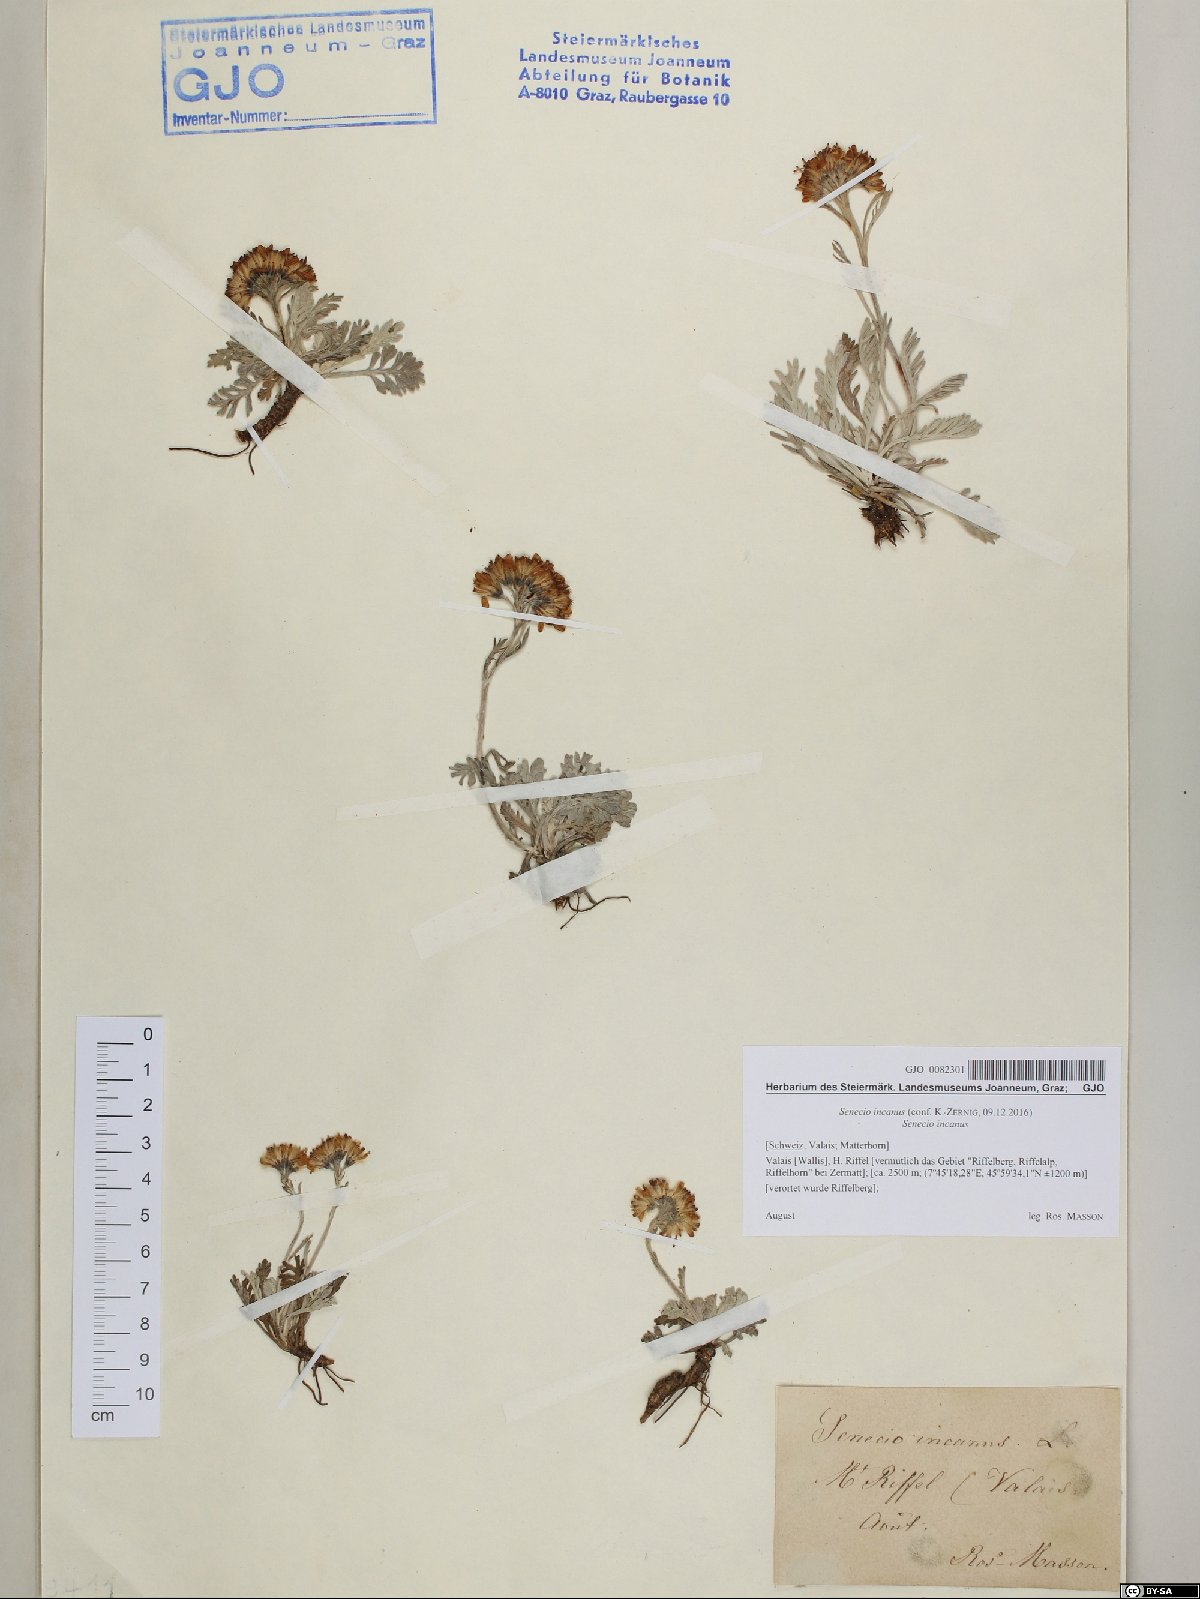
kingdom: Plantae
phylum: Tracheophyta
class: Magnoliopsida
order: Asterales
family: Asteraceae
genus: Jacobaea
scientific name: Jacobaea incana
